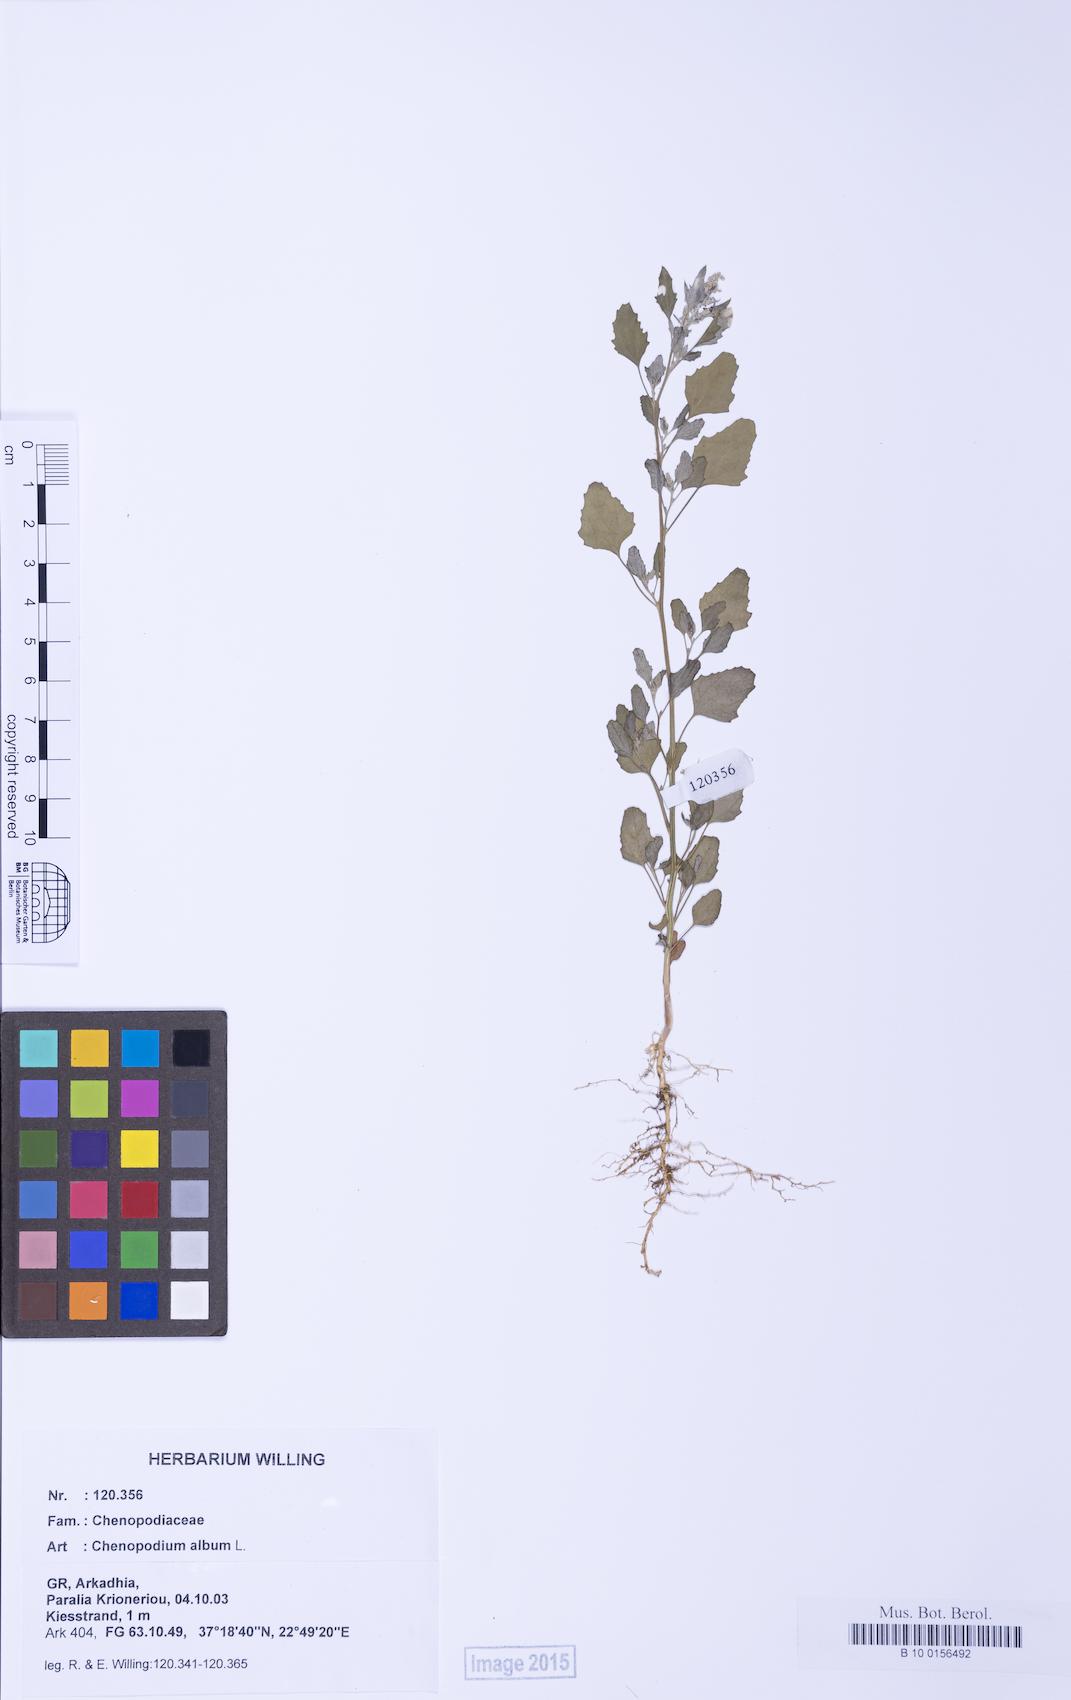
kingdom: Plantae
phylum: Tracheophyta
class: Magnoliopsida
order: Caryophyllales
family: Amaranthaceae
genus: Chenopodium
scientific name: Chenopodium album
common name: Fat-hen
